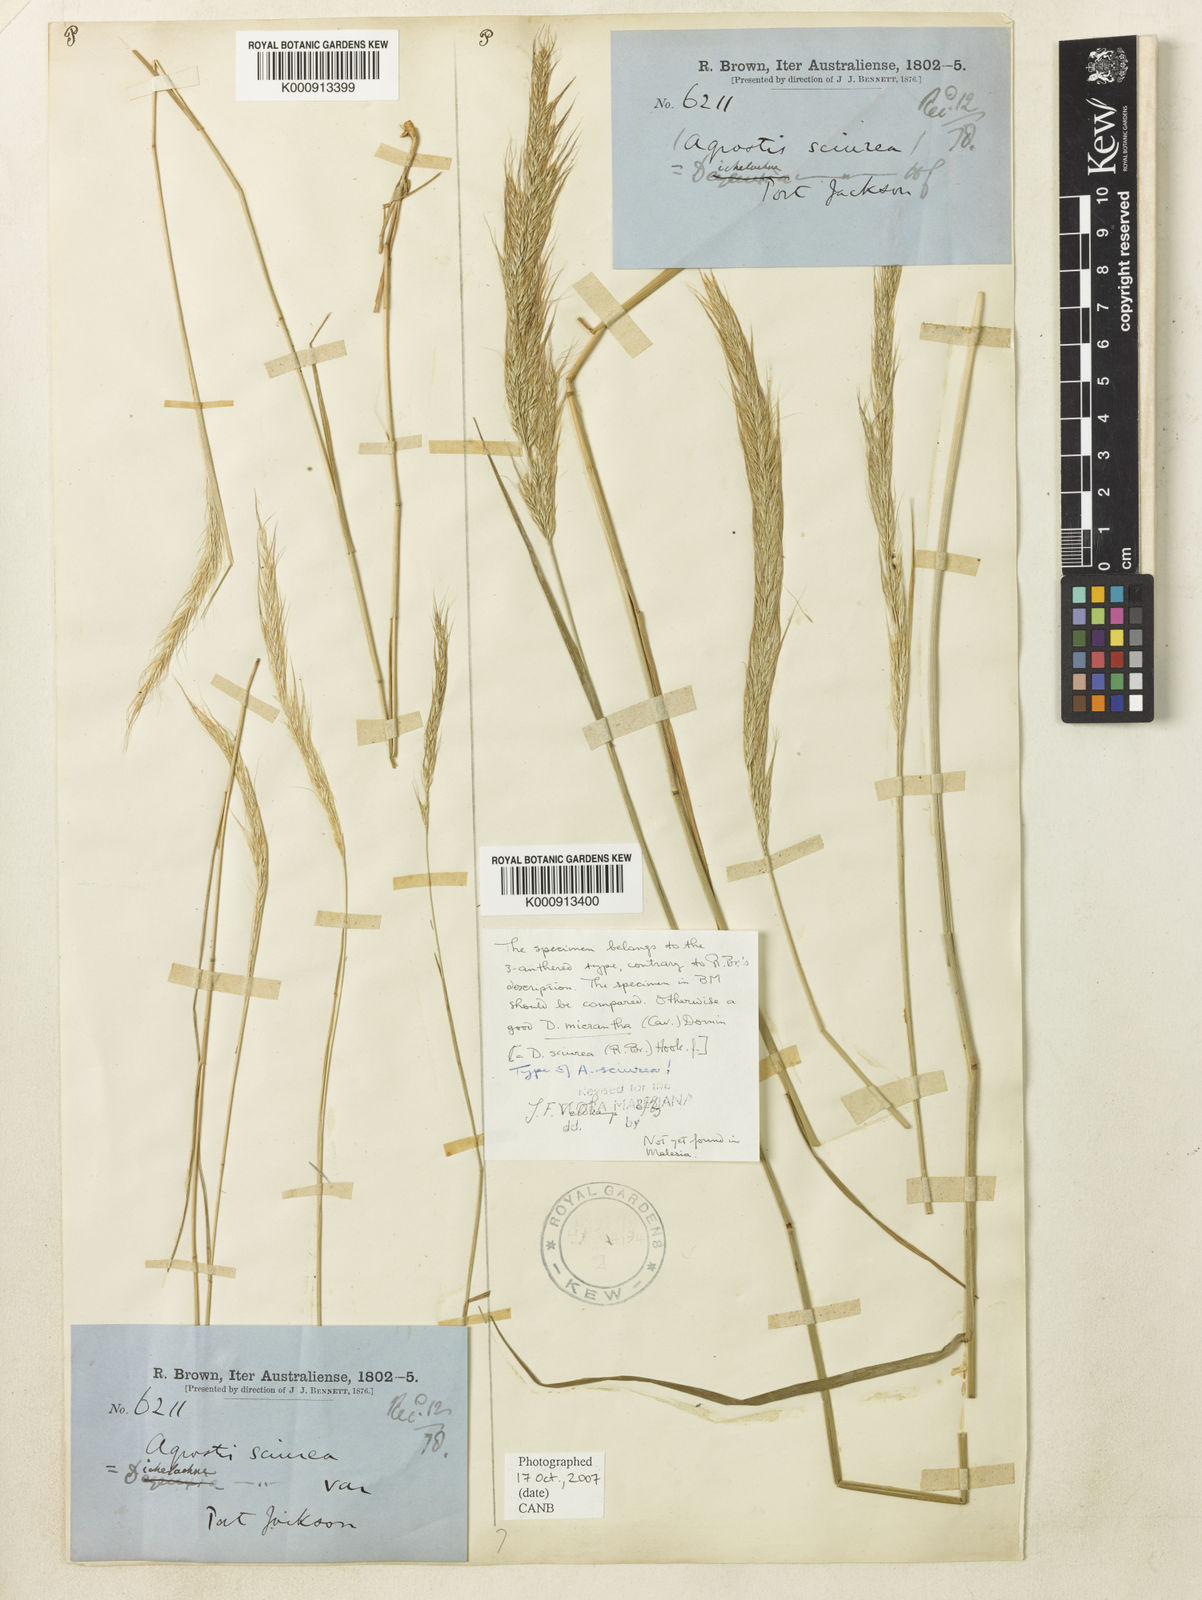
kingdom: Plantae
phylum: Tracheophyta
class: Liliopsida
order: Poales
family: Poaceae
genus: Dichelachne
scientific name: Dichelachne micrantha
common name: Plumegrass
